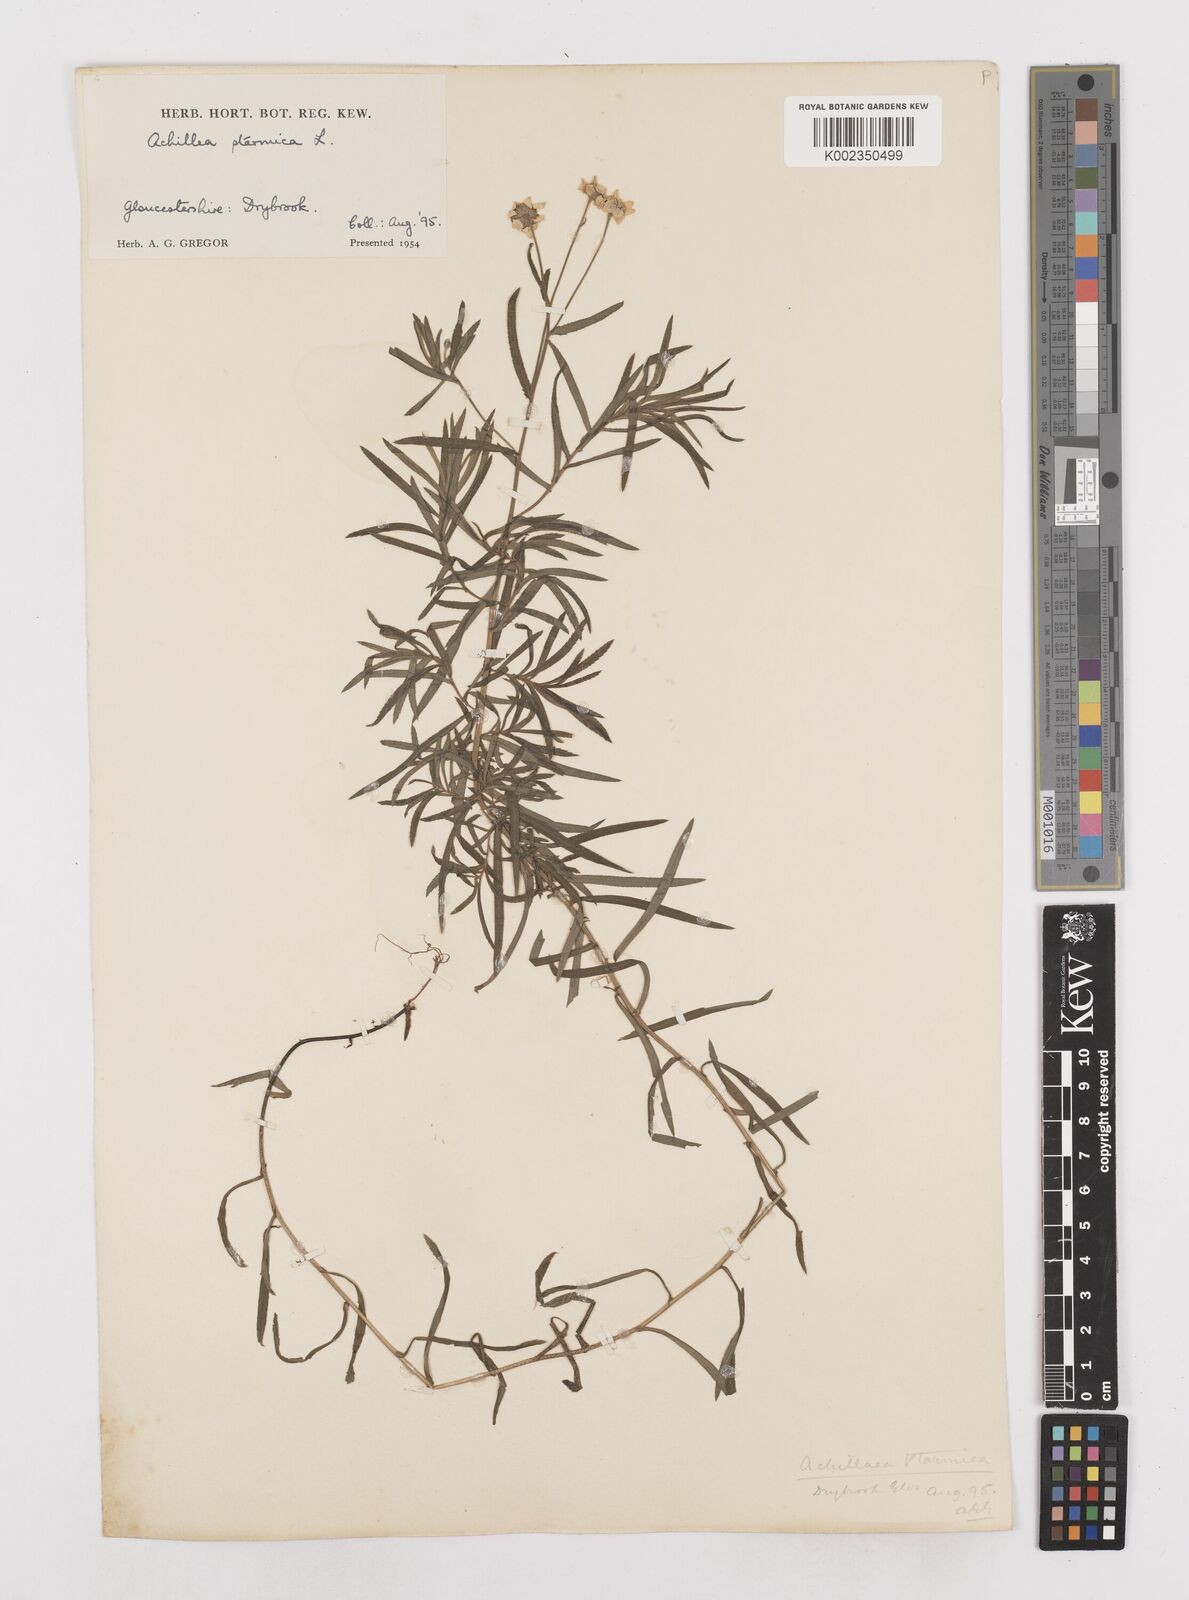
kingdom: Plantae
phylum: Tracheophyta
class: Magnoliopsida
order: Asterales
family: Asteraceae
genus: Achillea
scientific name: Achillea
